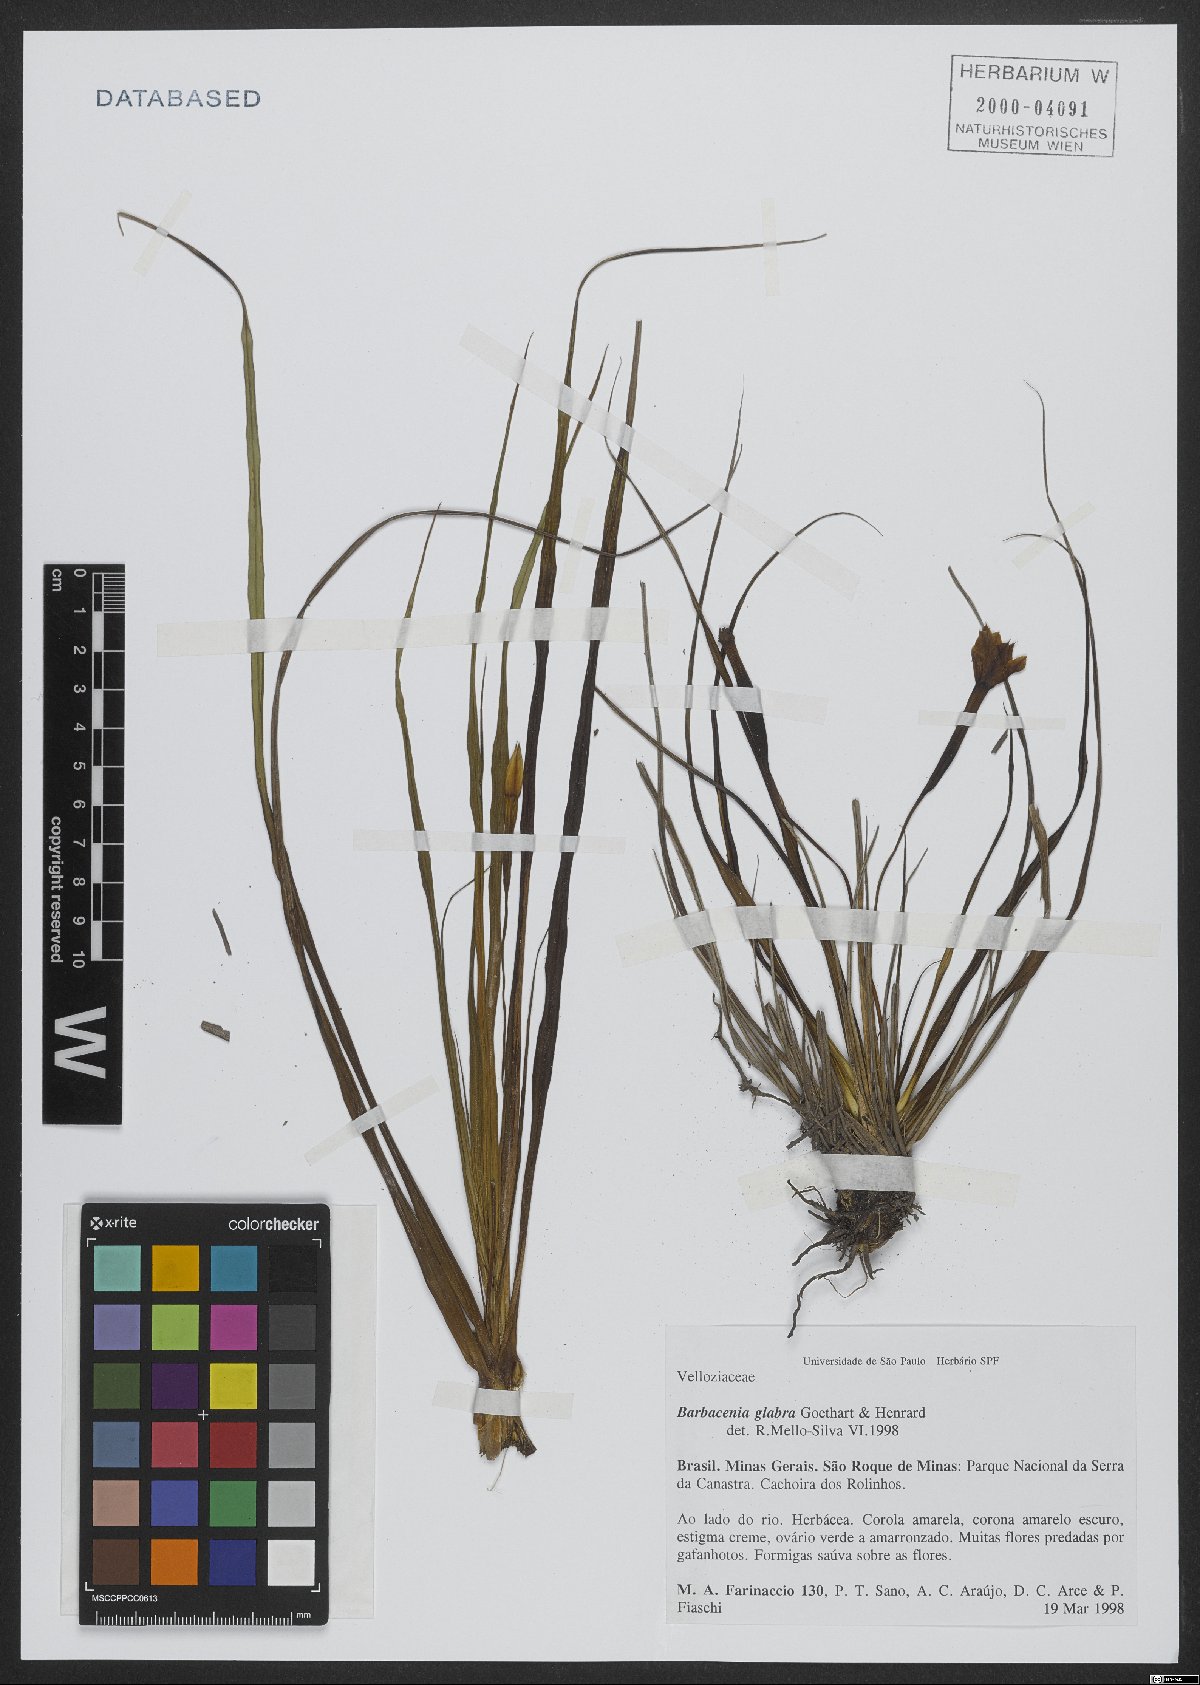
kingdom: Plantae
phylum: Tracheophyta
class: Liliopsida
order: Pandanales
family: Velloziaceae
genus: Barbacenia
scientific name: Barbacenia glabra
